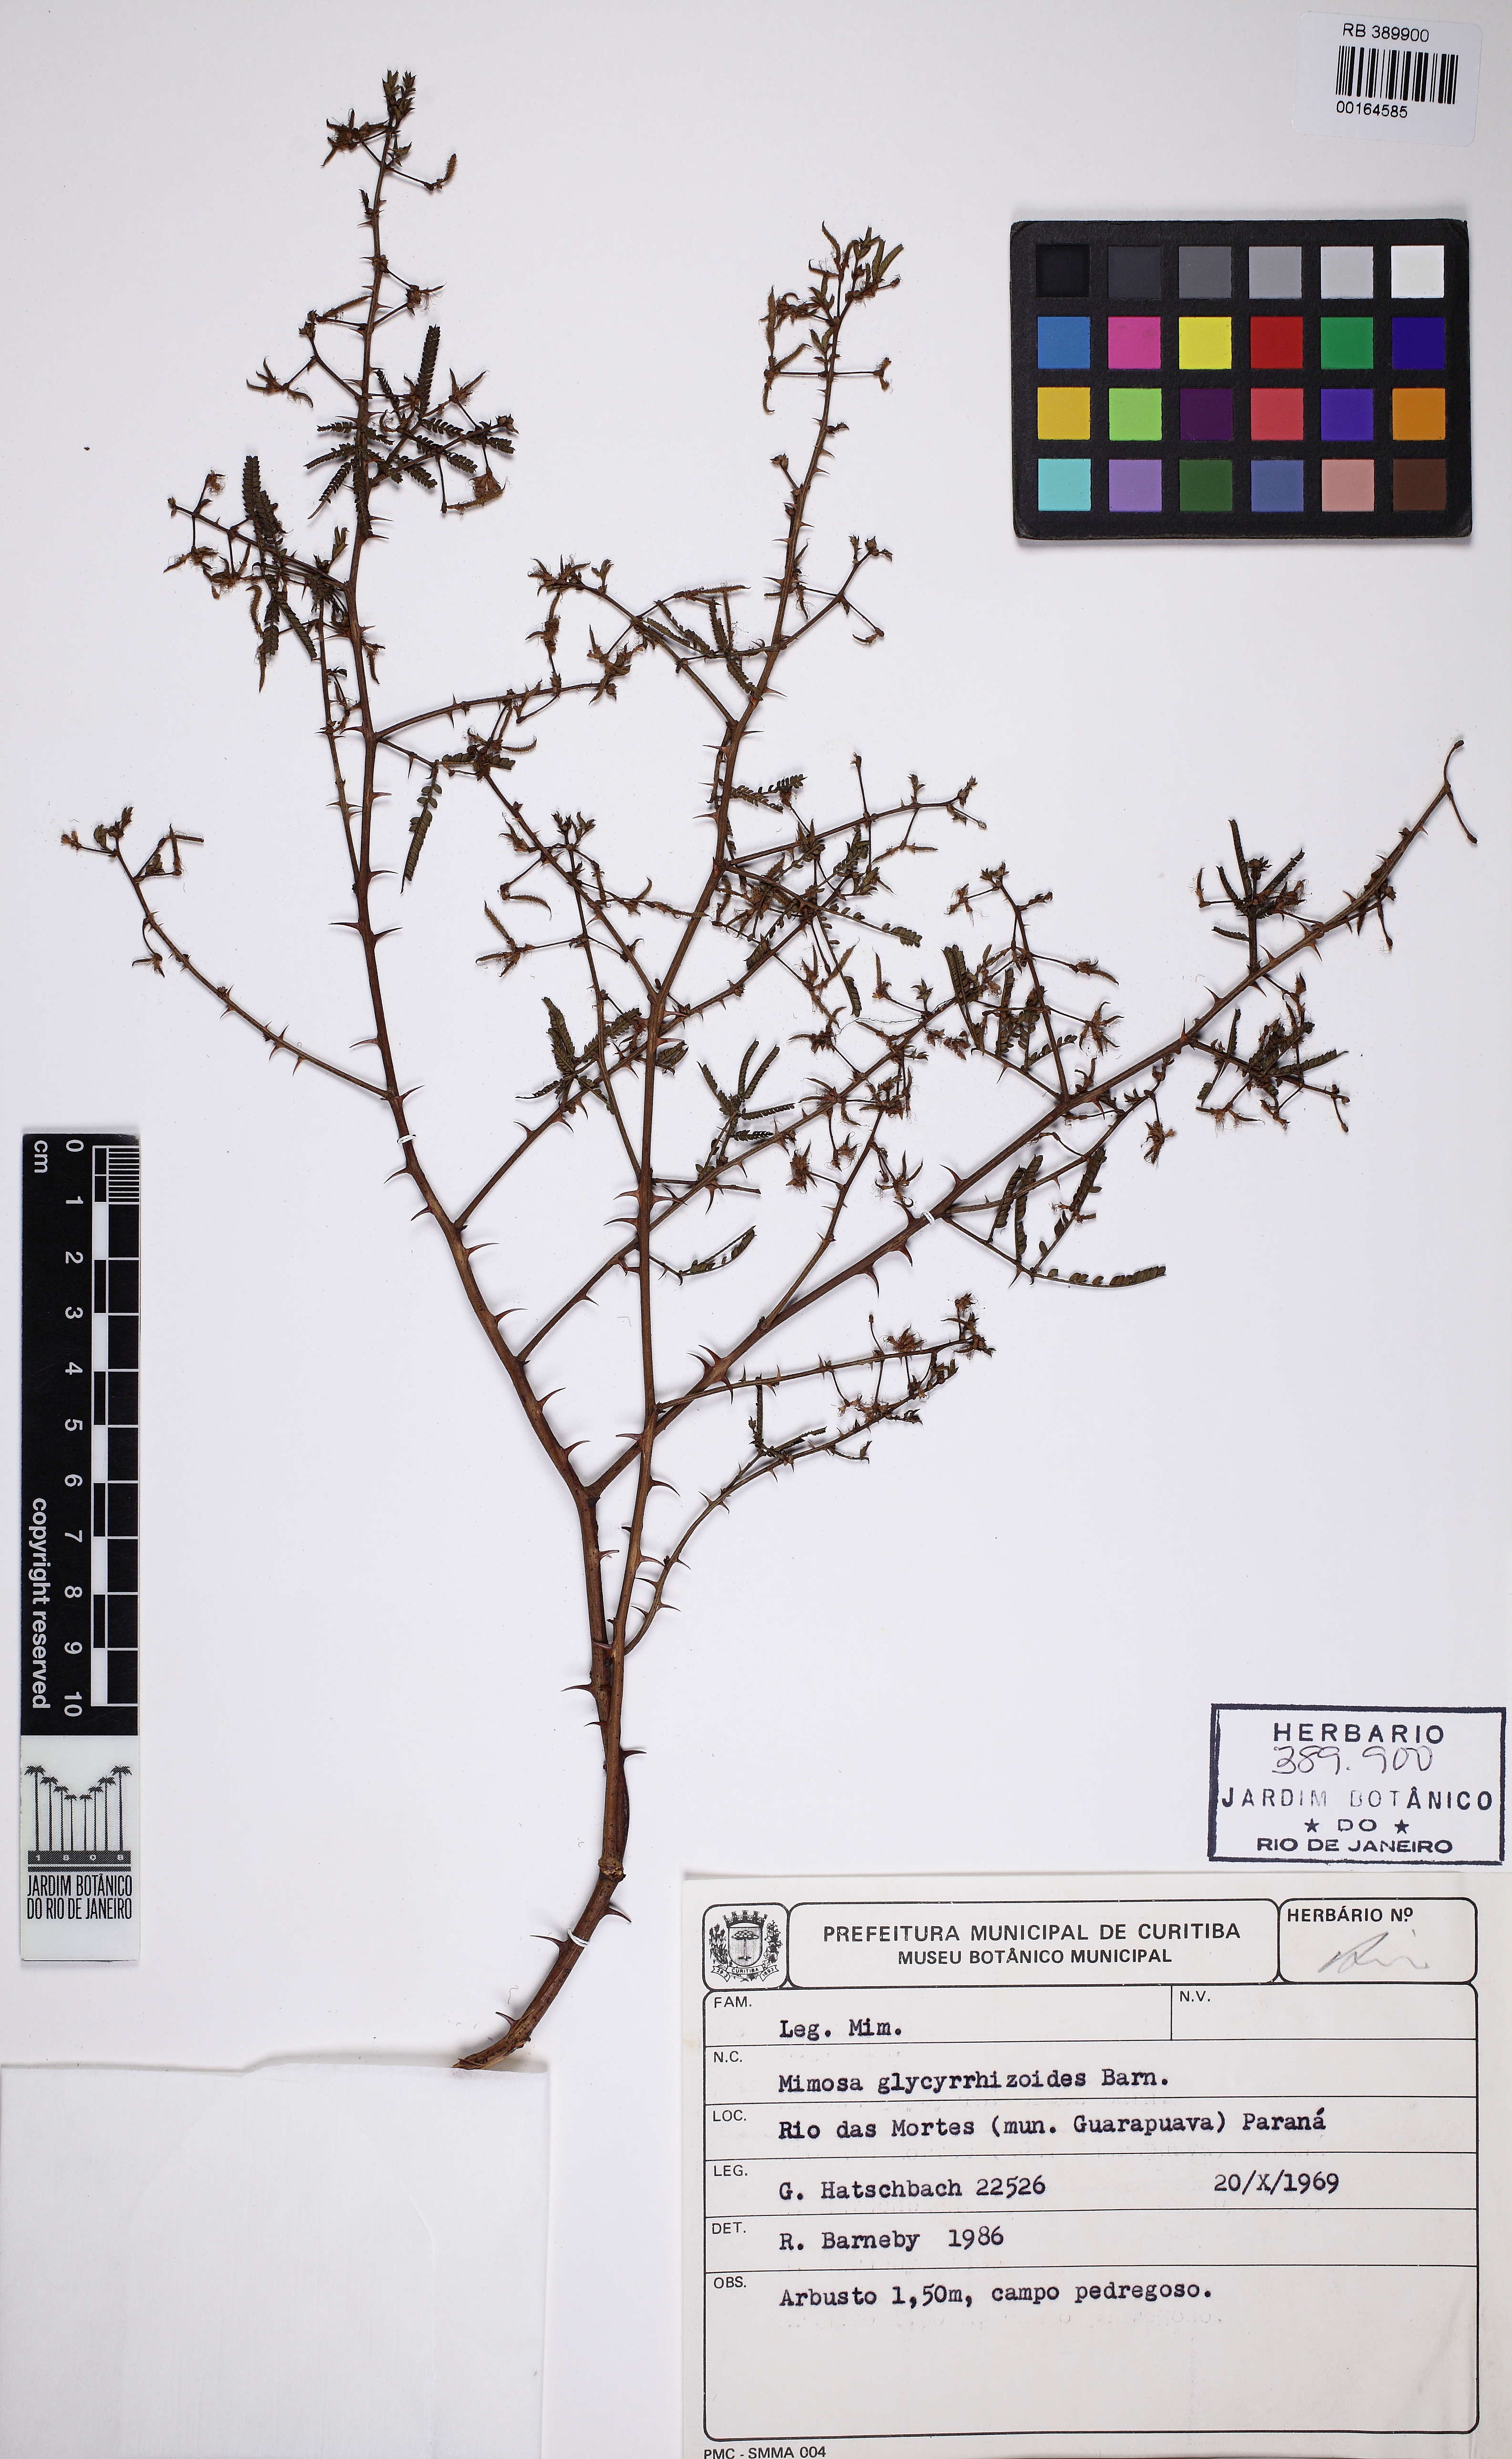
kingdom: Plantae
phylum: Tracheophyta
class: Magnoliopsida
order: Fabales
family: Fabaceae
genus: Mimosa
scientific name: Mimosa glycyrrhizoides
